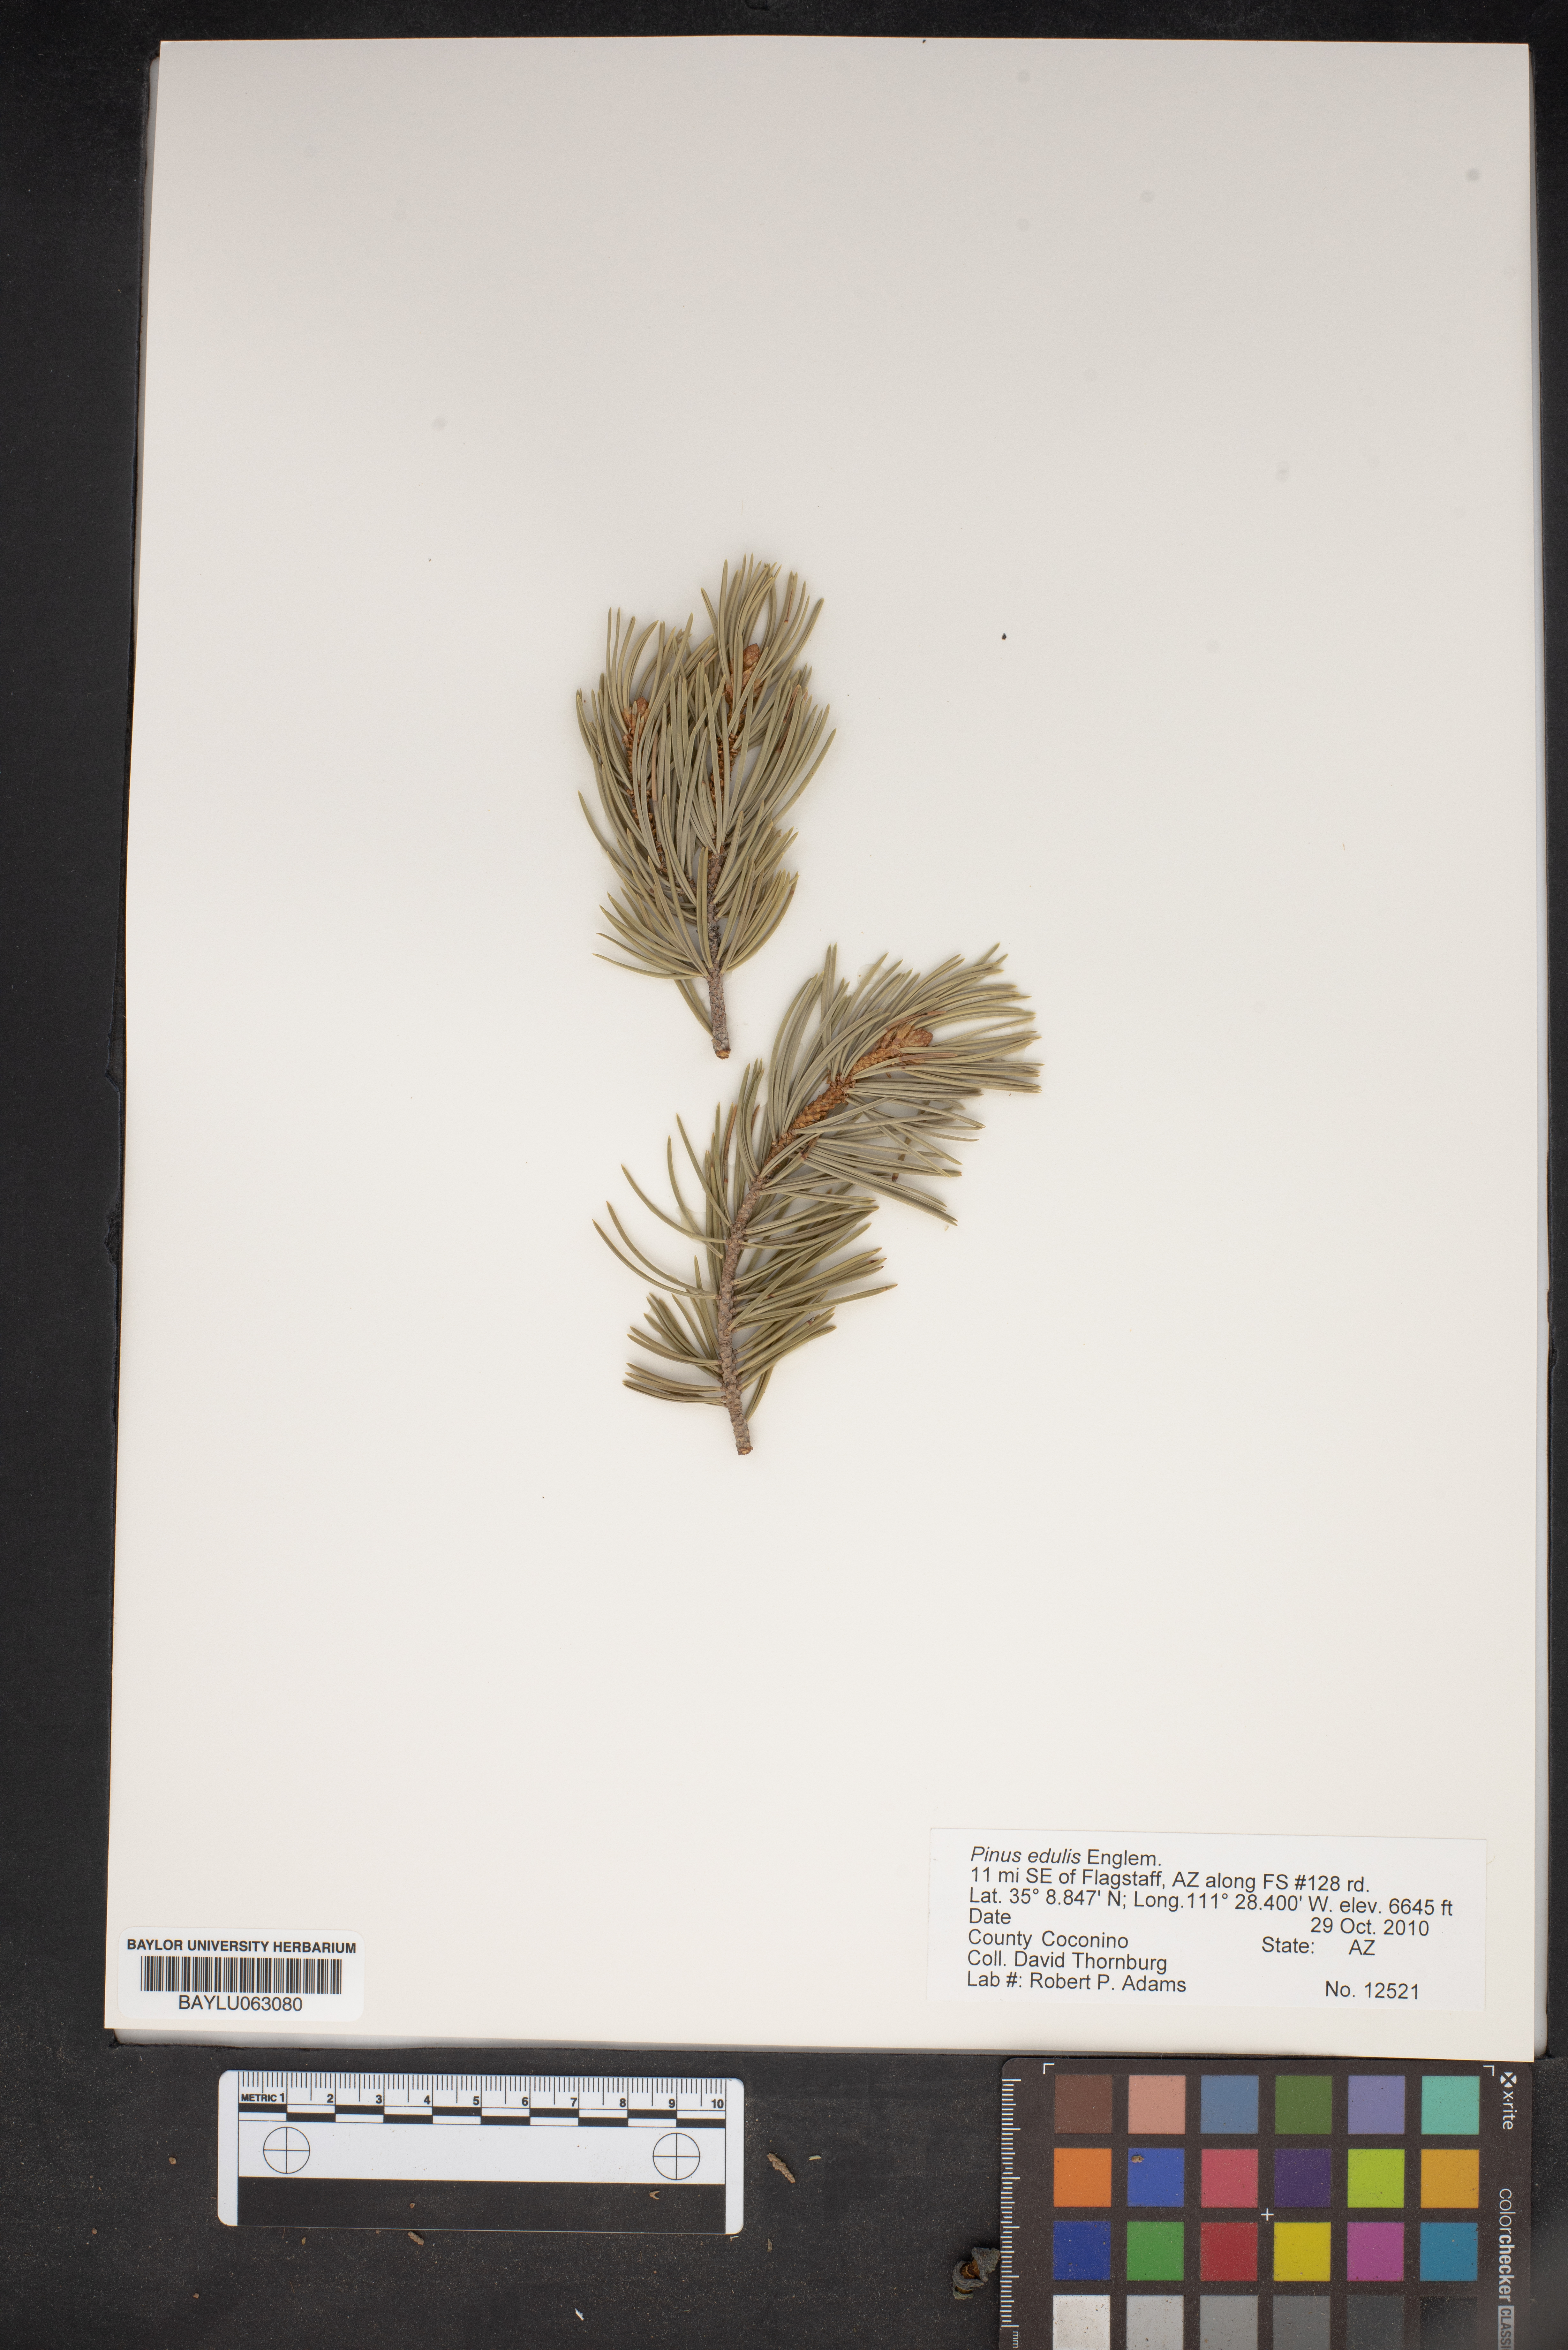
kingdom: Plantae
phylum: Tracheophyta
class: Pinopsida
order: Pinales
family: Pinaceae
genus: Pinus
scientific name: Pinus edulis
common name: Colorado pinyon
